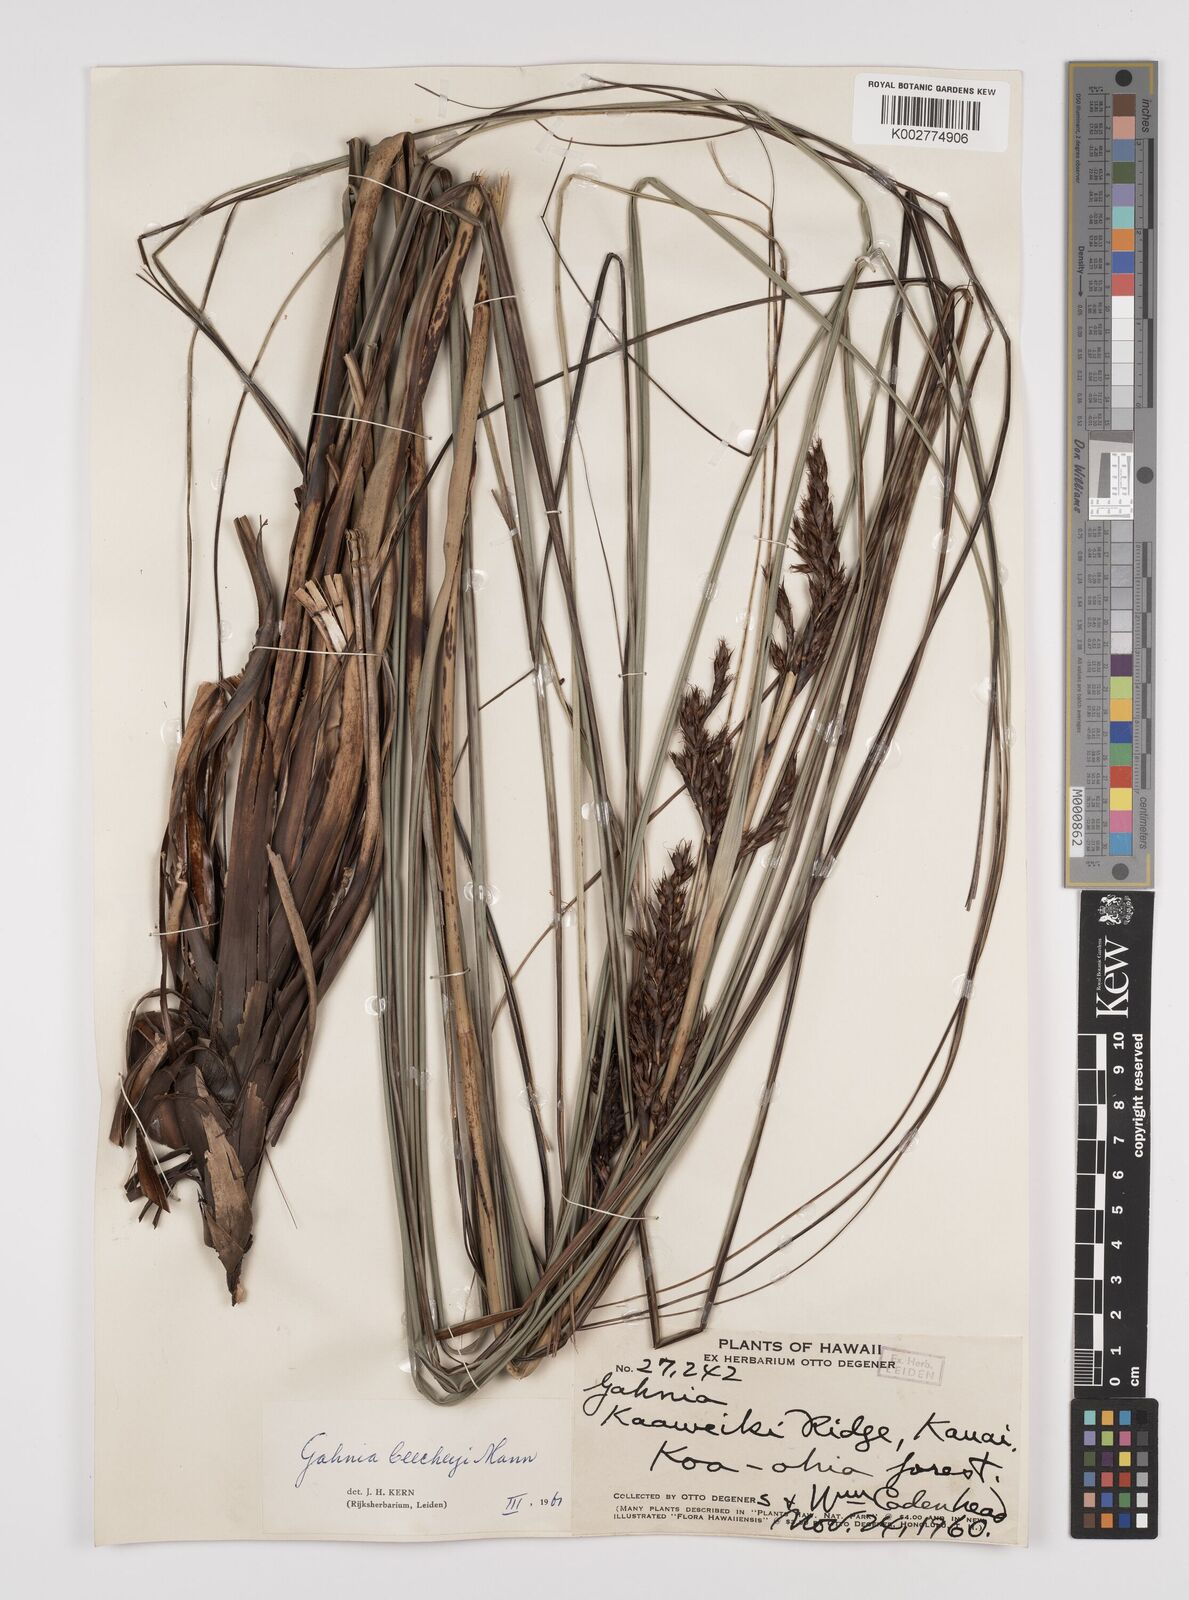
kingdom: Plantae
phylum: Tracheophyta
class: Liliopsida
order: Poales
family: Cyperaceae
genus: Gahnia
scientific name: Gahnia beecheyi
